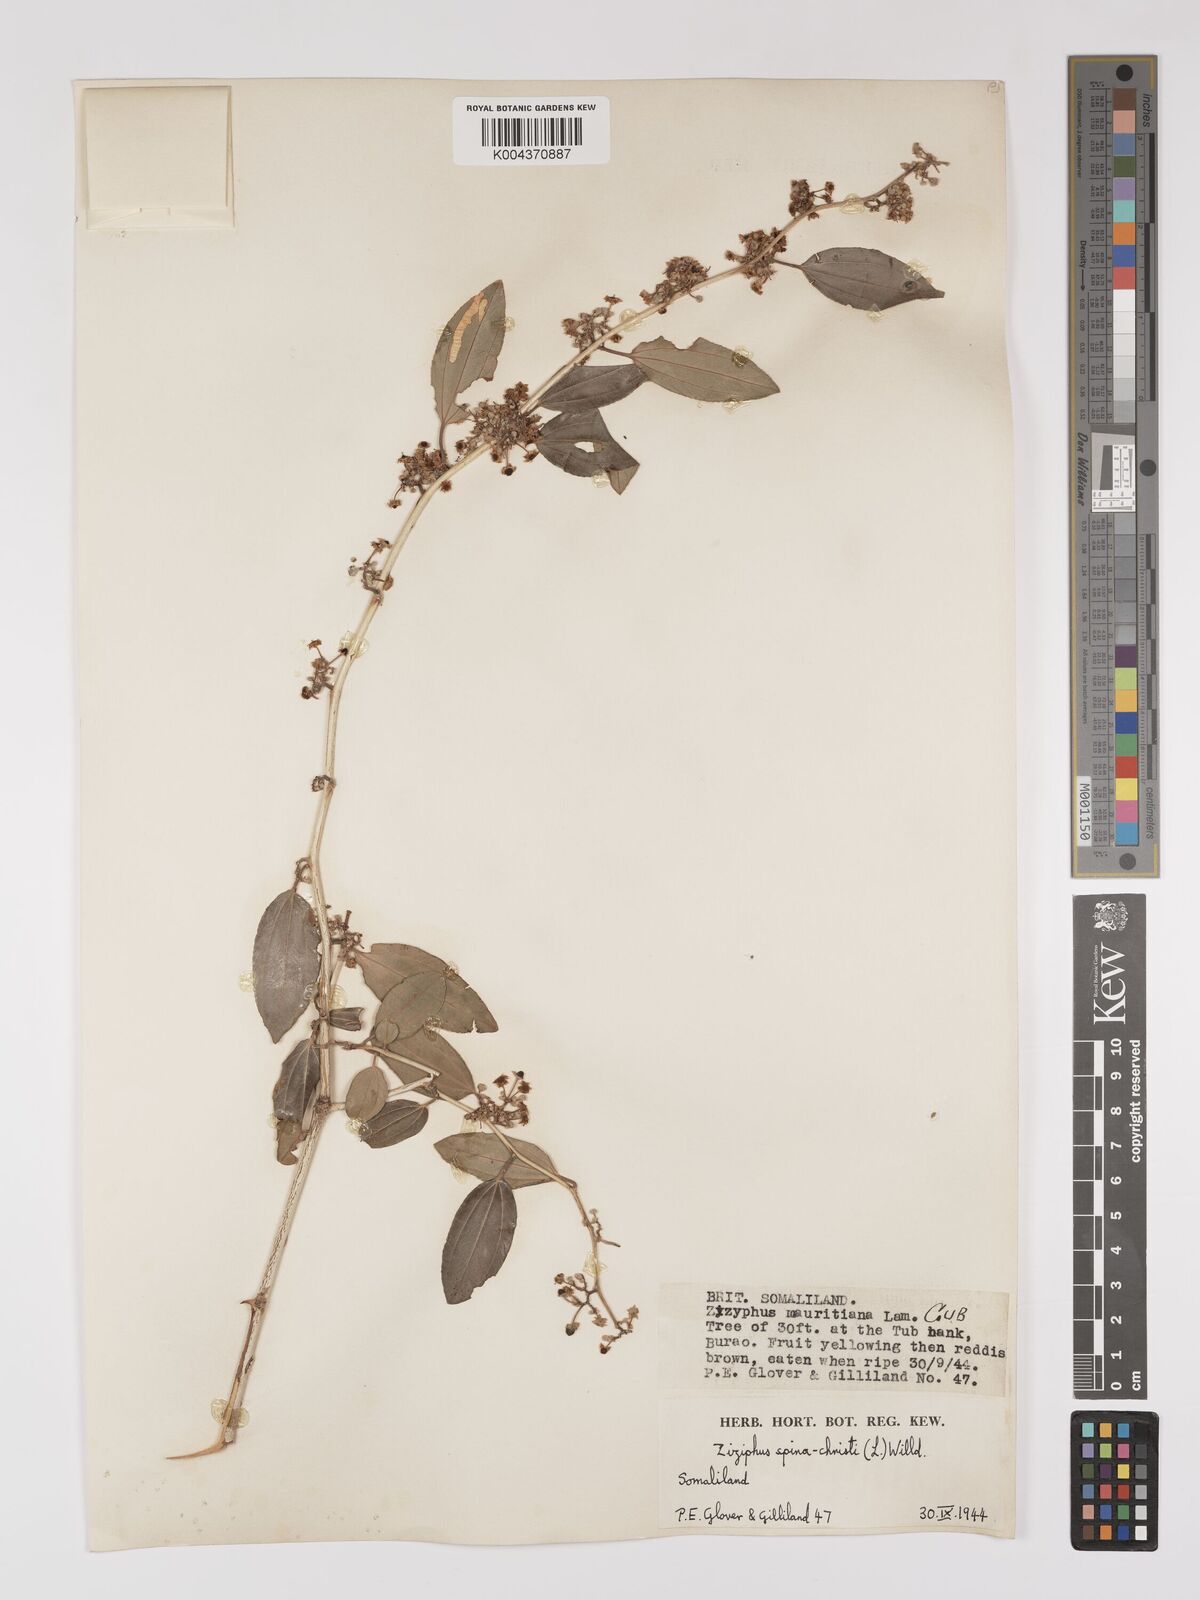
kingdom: Plantae
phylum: Tracheophyta
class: Magnoliopsida
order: Rosales
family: Rhamnaceae
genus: Ziziphus
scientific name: Ziziphus spina-christi
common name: Syrian christ-thorn
